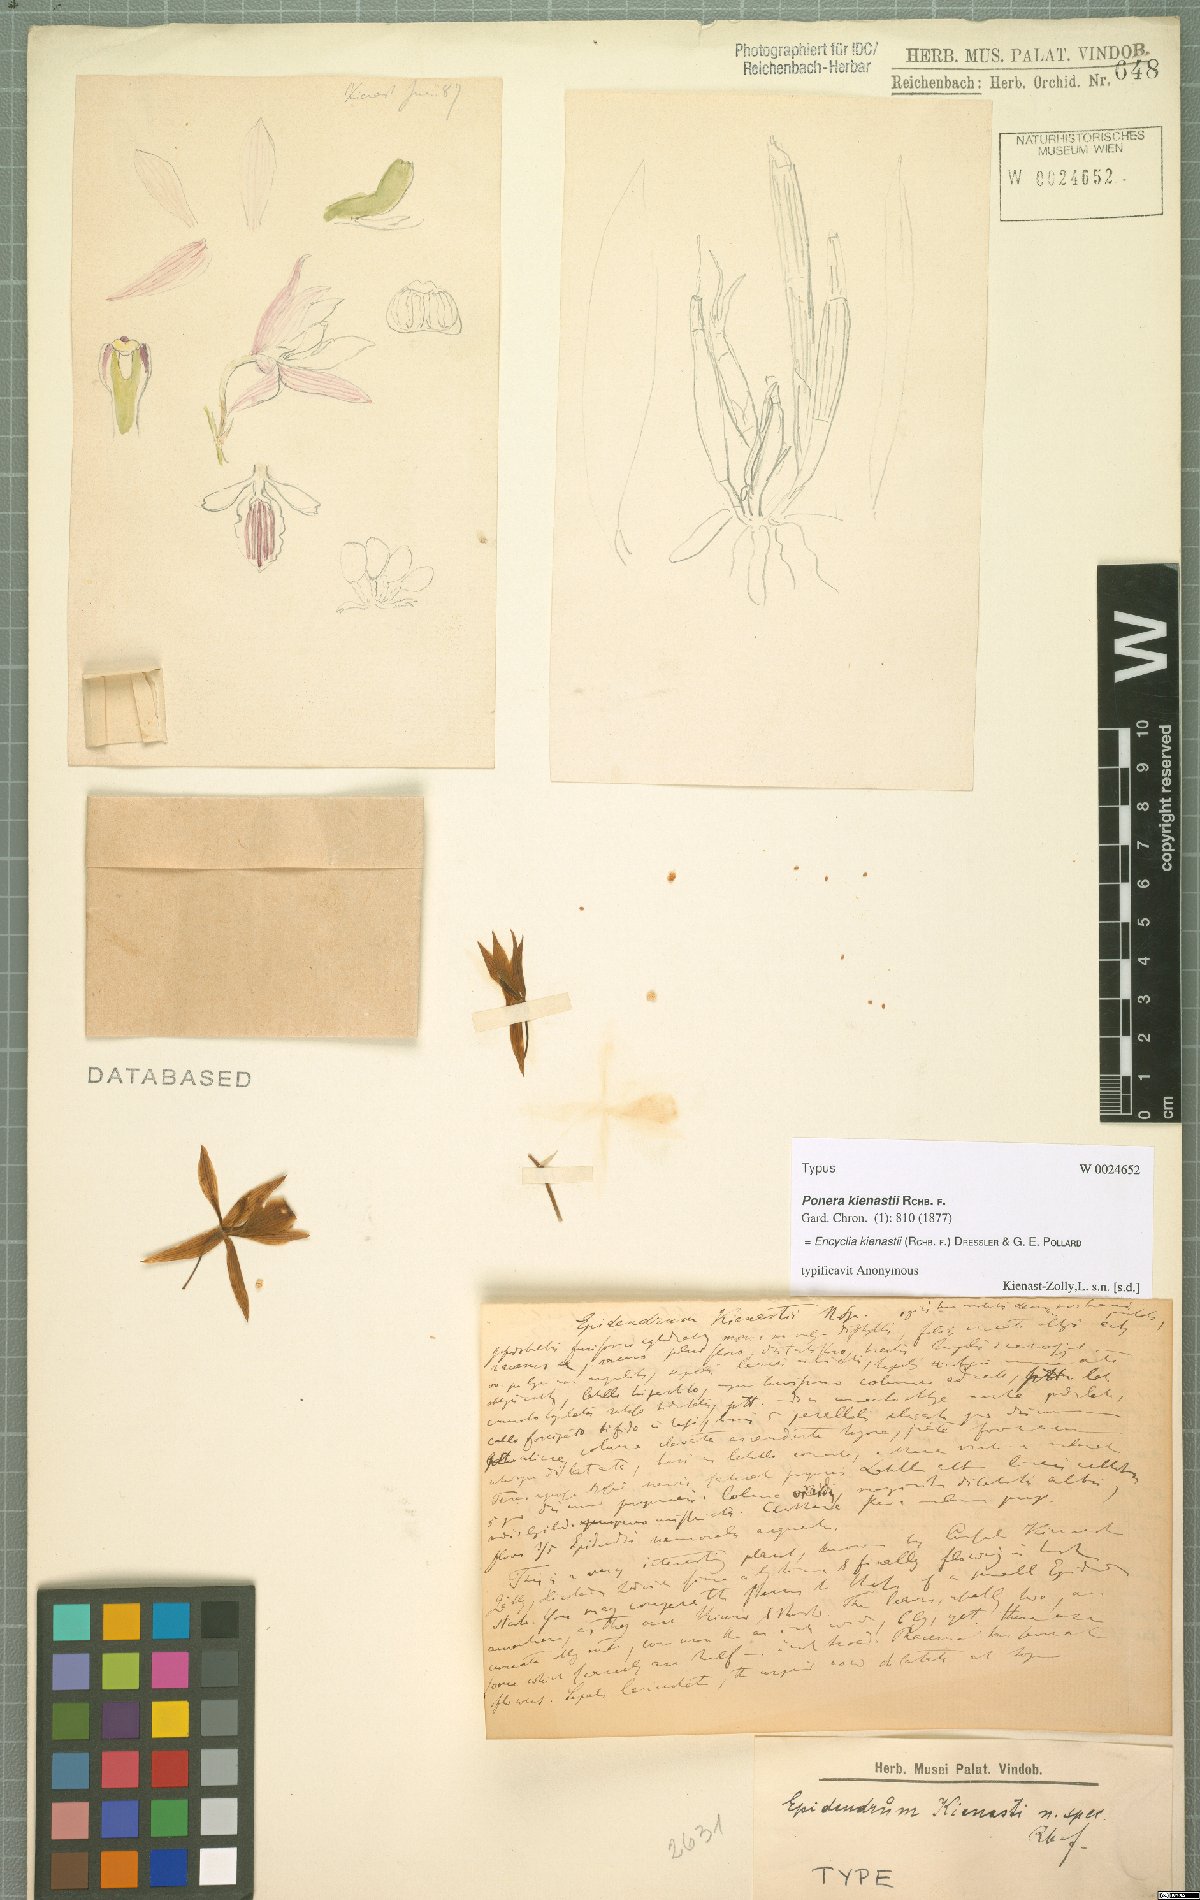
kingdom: Plantae
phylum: Tracheophyta
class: Liliopsida
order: Asparagales
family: Orchidaceae
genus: Amoana
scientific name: Amoana kienastii
